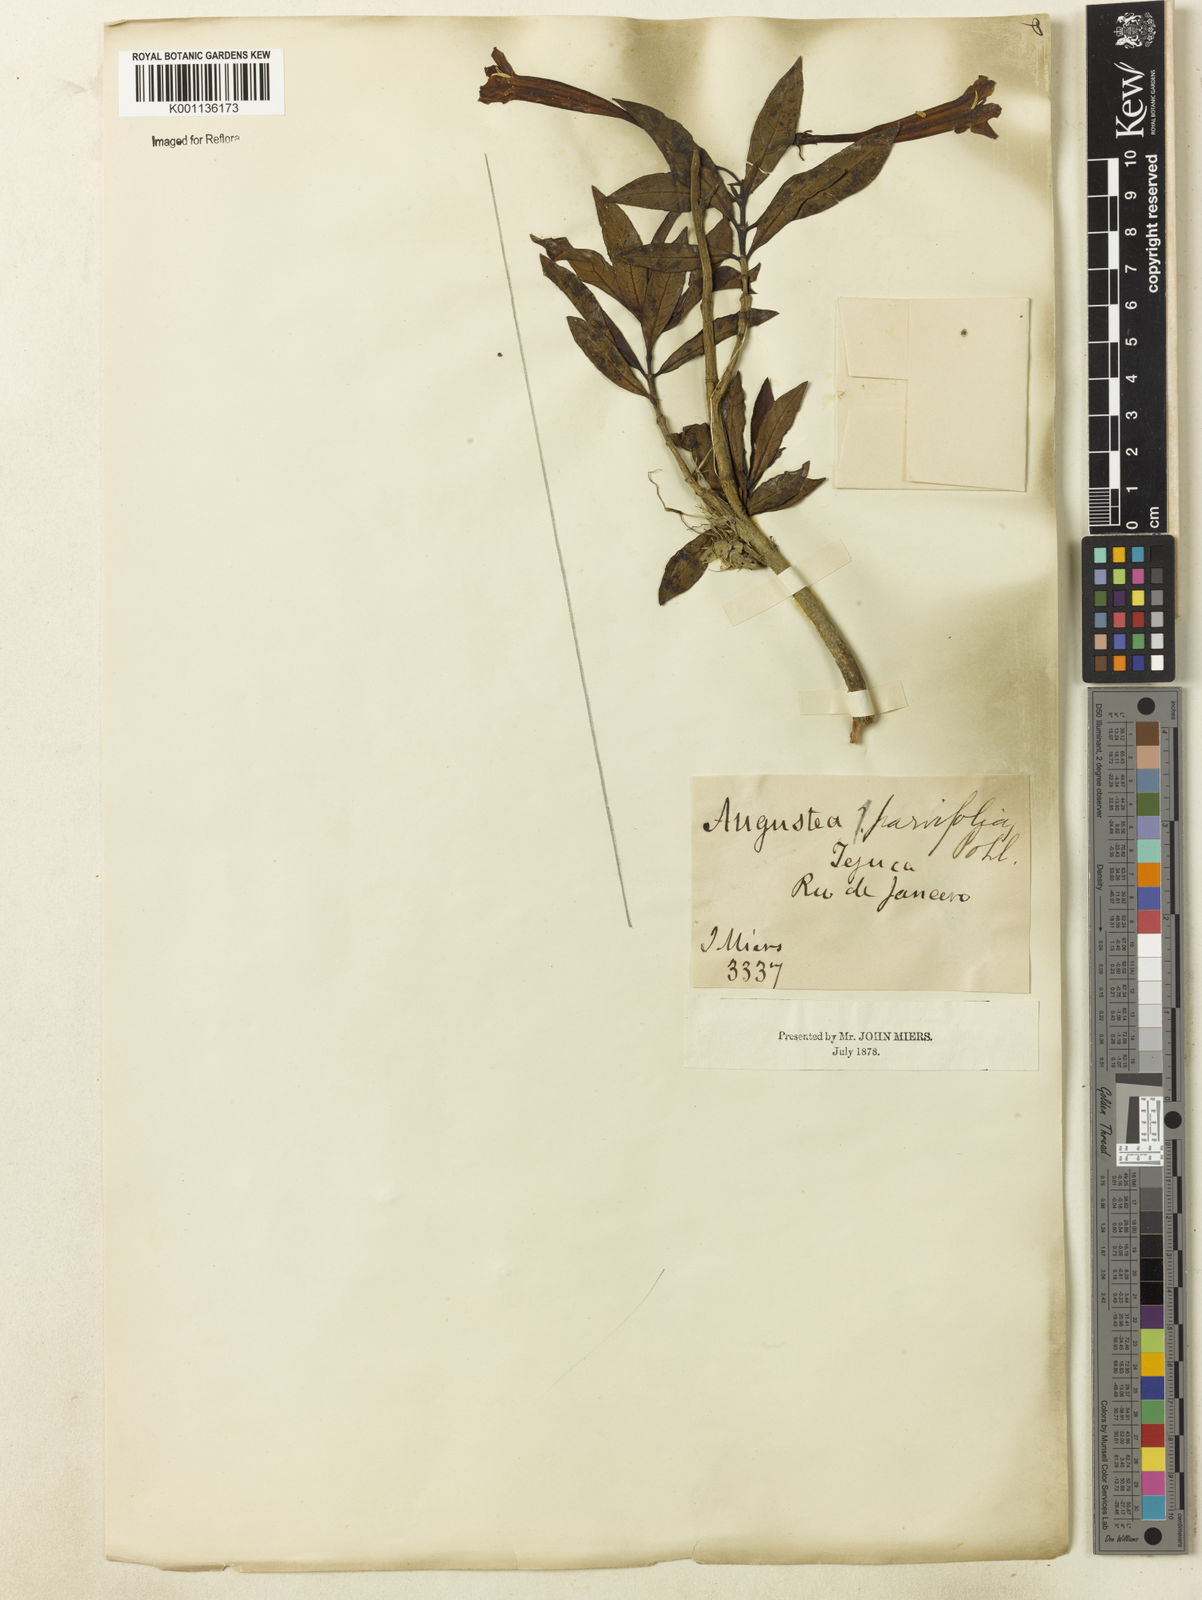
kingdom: Plantae
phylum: Tracheophyta
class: Magnoliopsida
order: Gentianales
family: Rubiaceae
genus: Augusta
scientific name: Augusta longifolia
